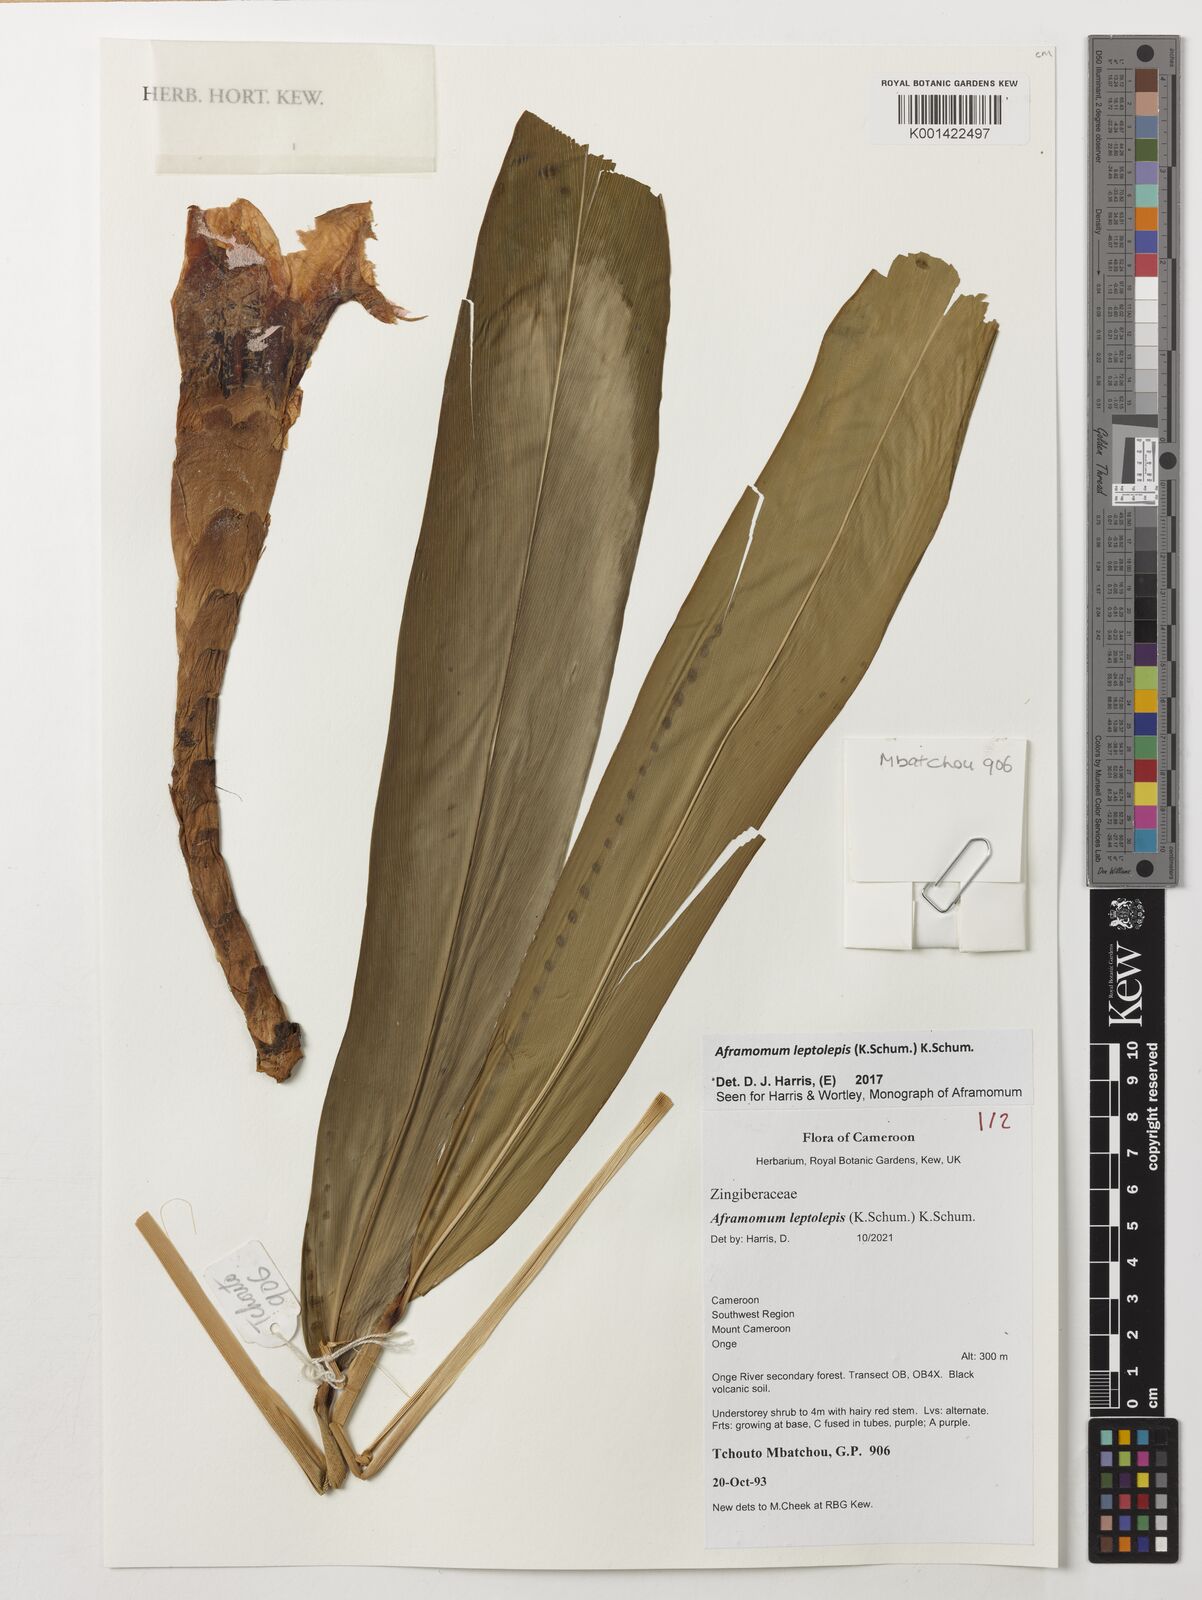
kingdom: Plantae
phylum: Tracheophyta
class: Liliopsida
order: Zingiberales
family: Zingiberaceae
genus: Aframomum
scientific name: Aframomum leptolepis
